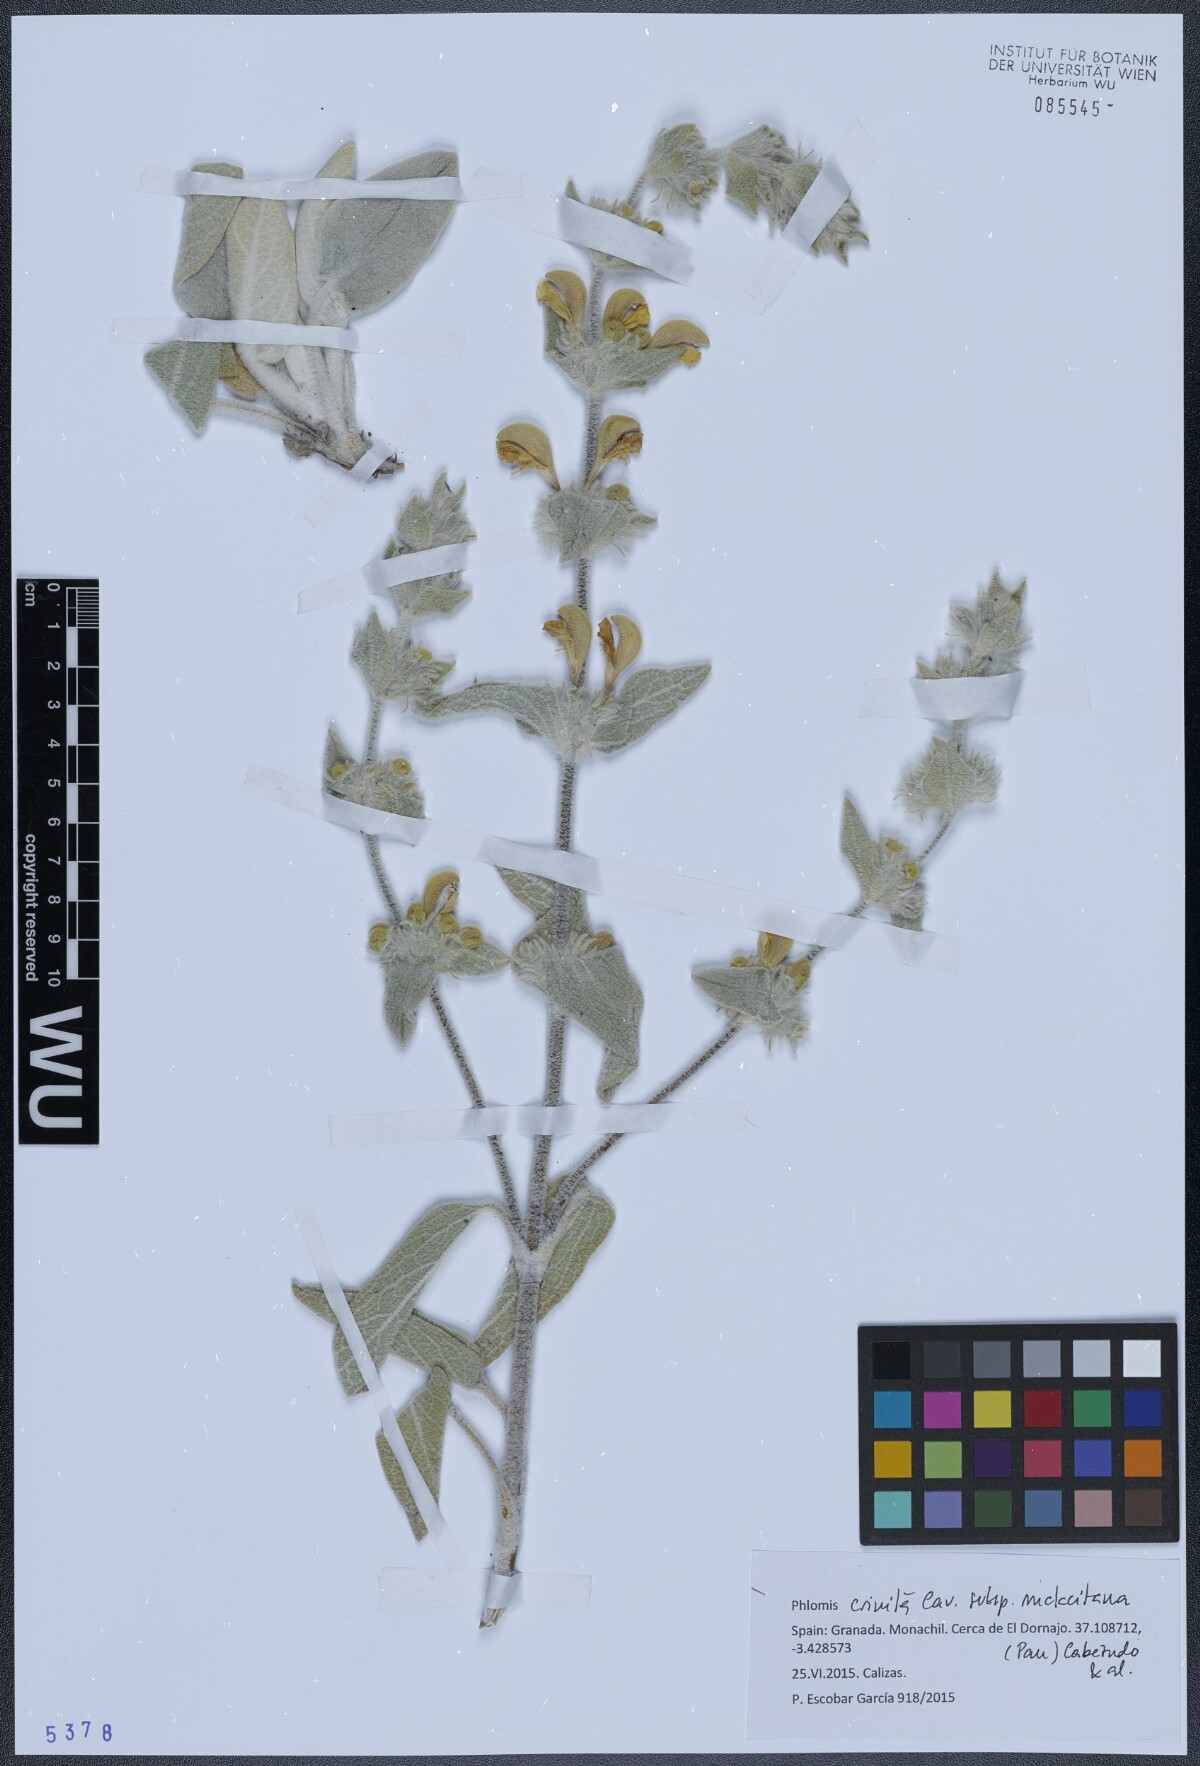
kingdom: Plantae
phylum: Tracheophyta
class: Magnoliopsida
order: Lamiales
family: Lamiaceae
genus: Phlomis
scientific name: Phlomis crinita
